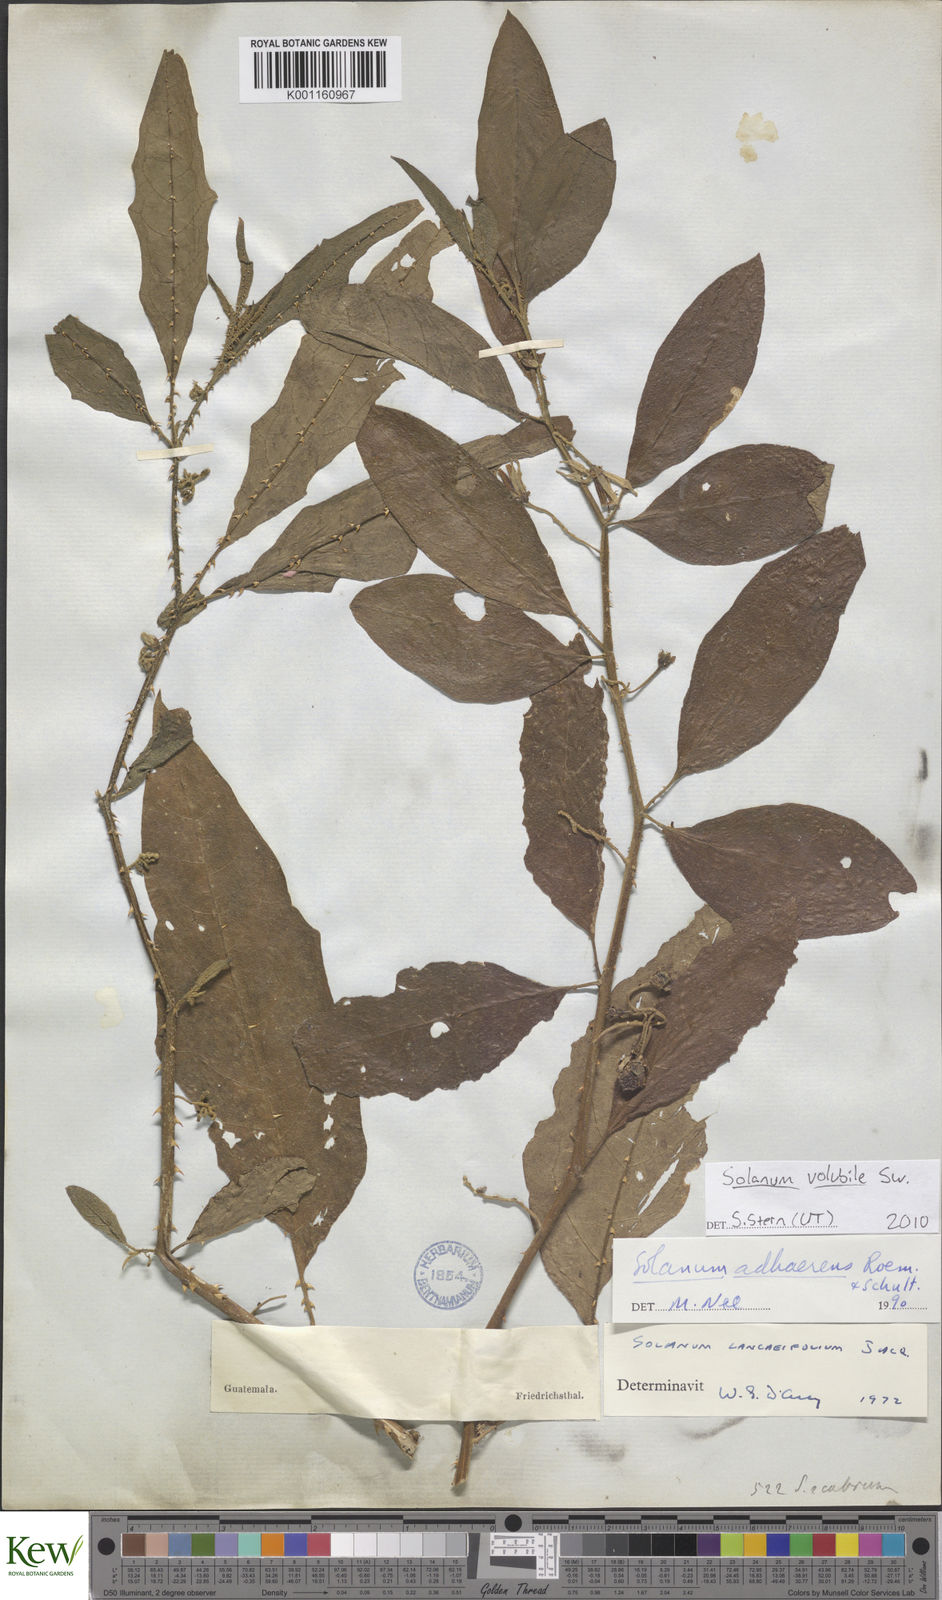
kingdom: Plantae
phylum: Tracheophyta
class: Magnoliopsida
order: Solanales
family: Solanaceae
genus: Solanum
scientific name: Solanum volubile
